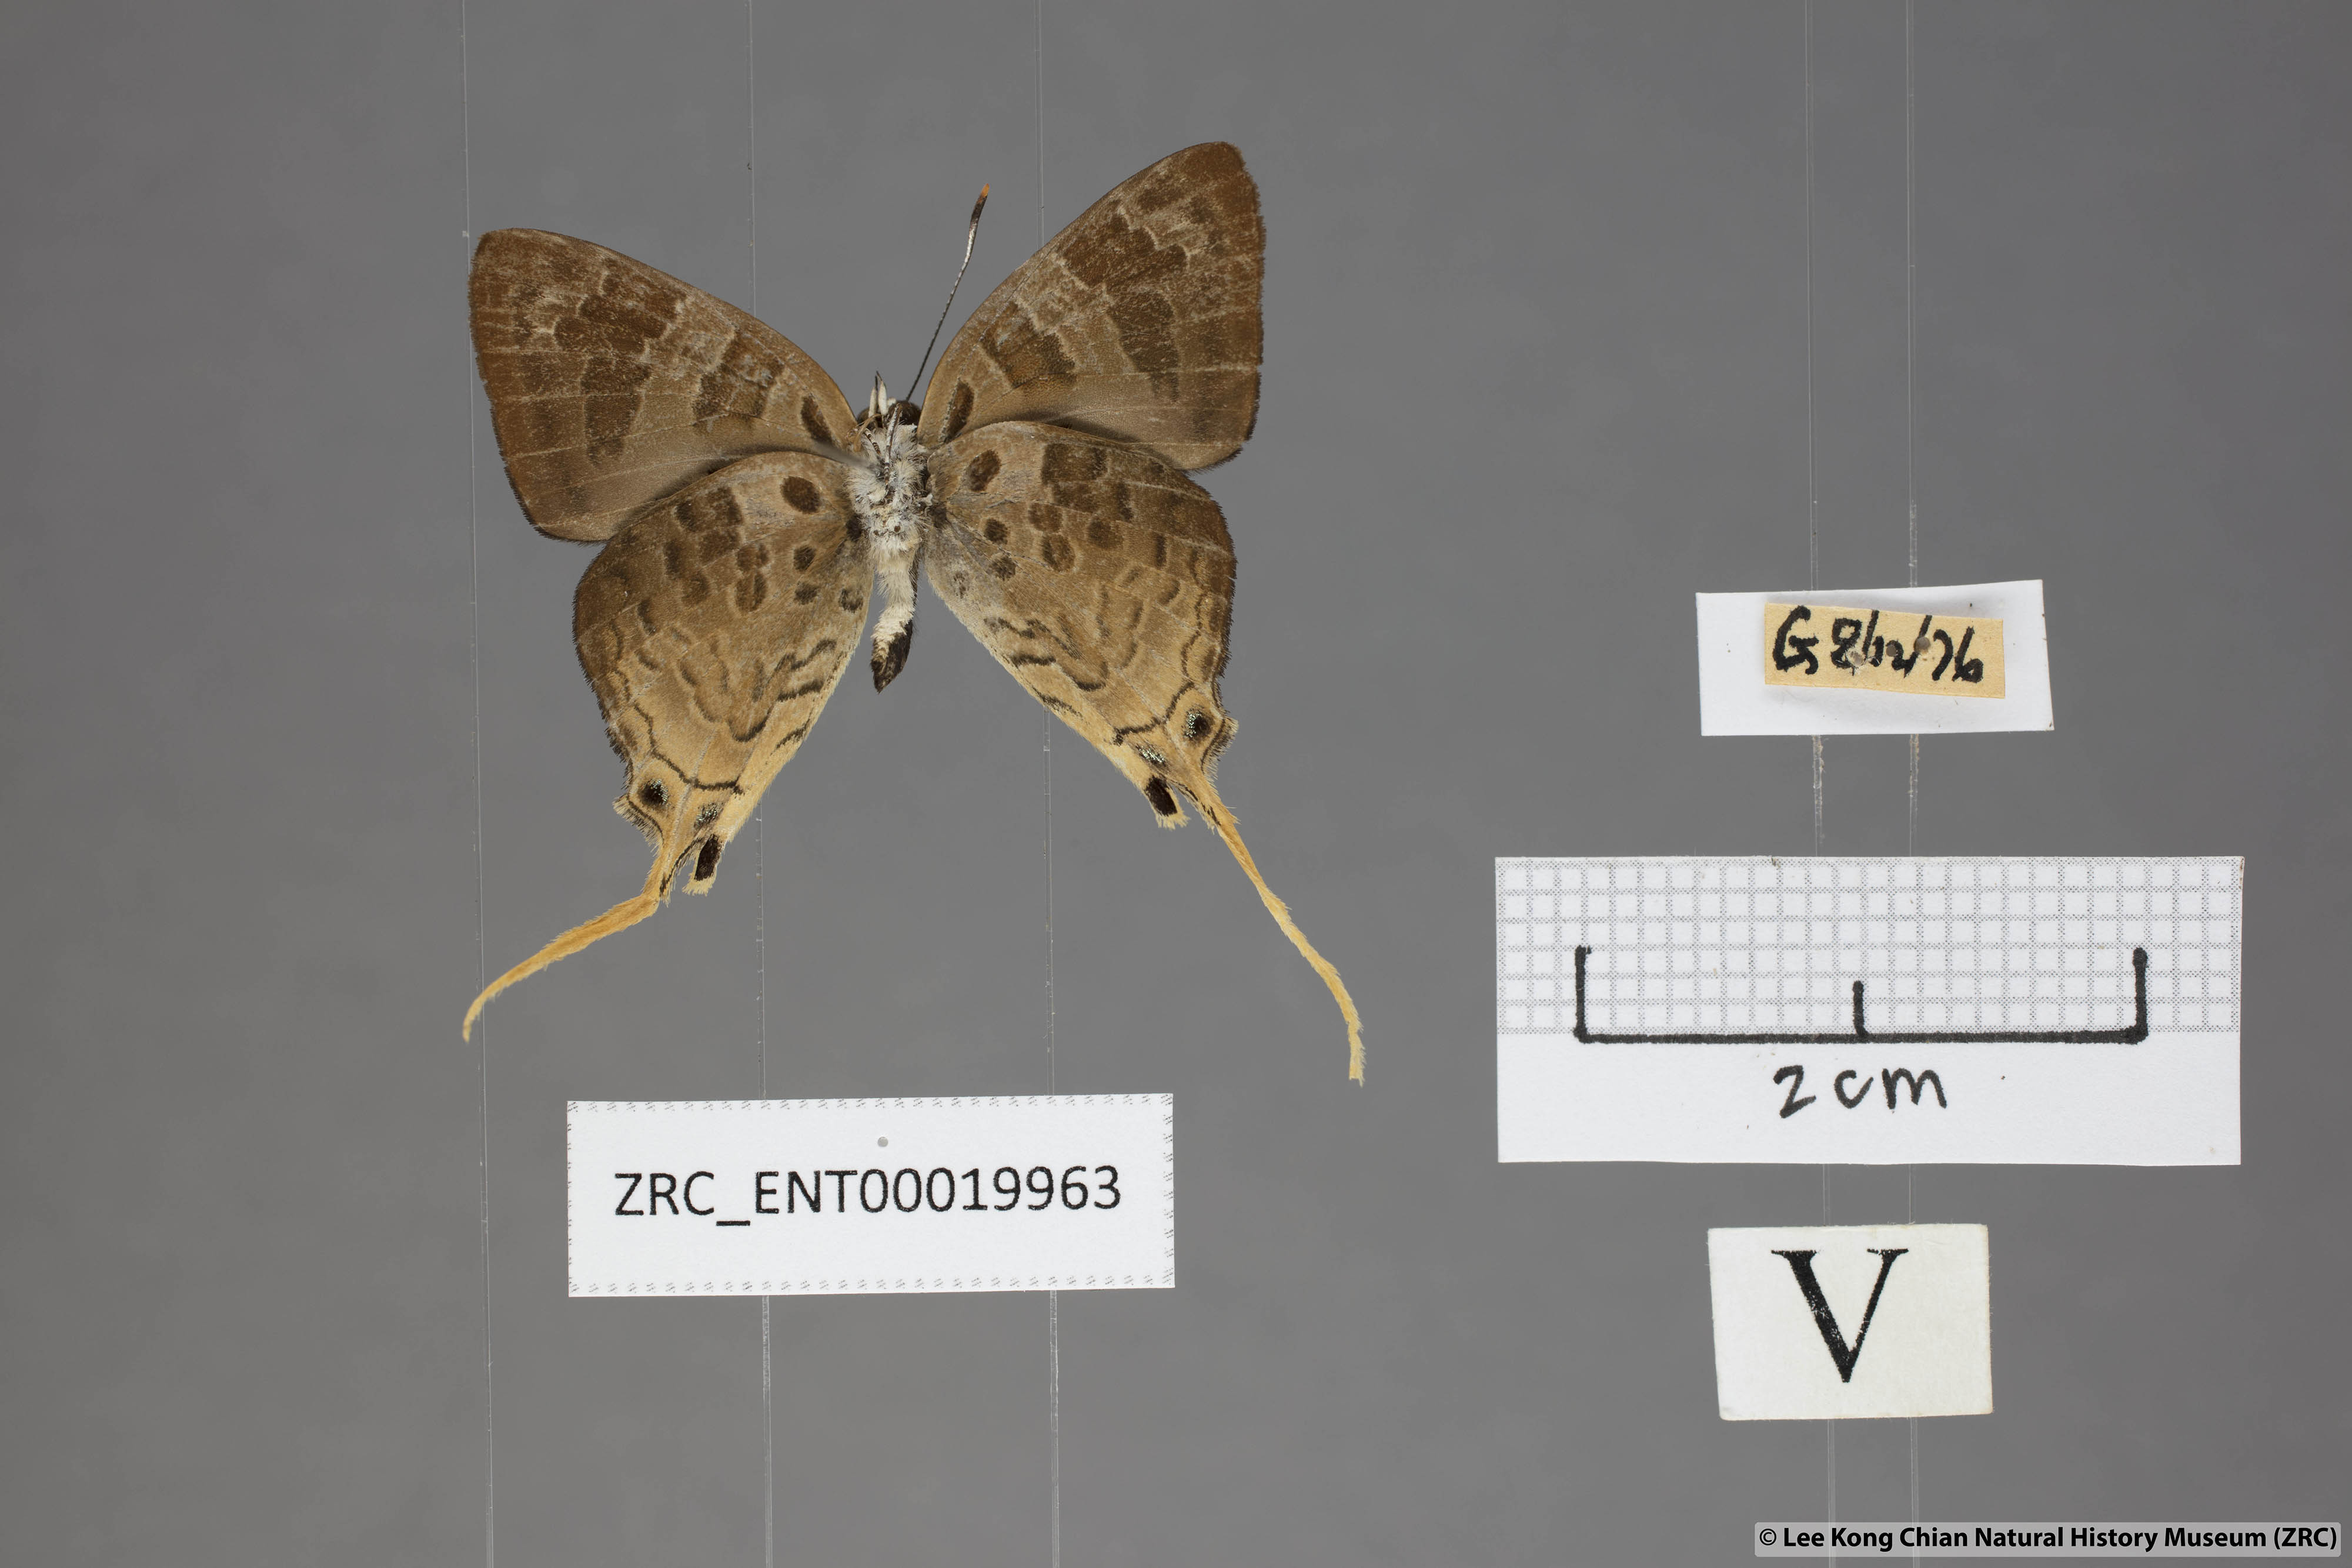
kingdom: Animalia
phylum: Arthropoda
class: Insecta
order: Lepidoptera
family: Lycaenidae
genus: Bindahara
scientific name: Bindahara phocides
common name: Sword-tailed flash
